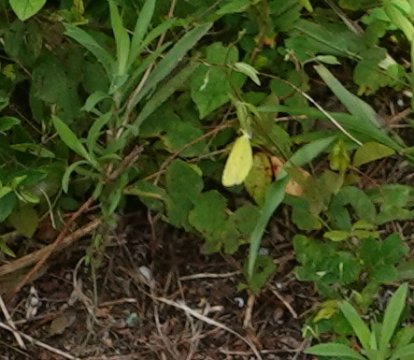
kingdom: Animalia
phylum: Arthropoda
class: Insecta
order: Lepidoptera
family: Pieridae
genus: Pyrisitia
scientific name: Pyrisitia lisa
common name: Little Yellow
